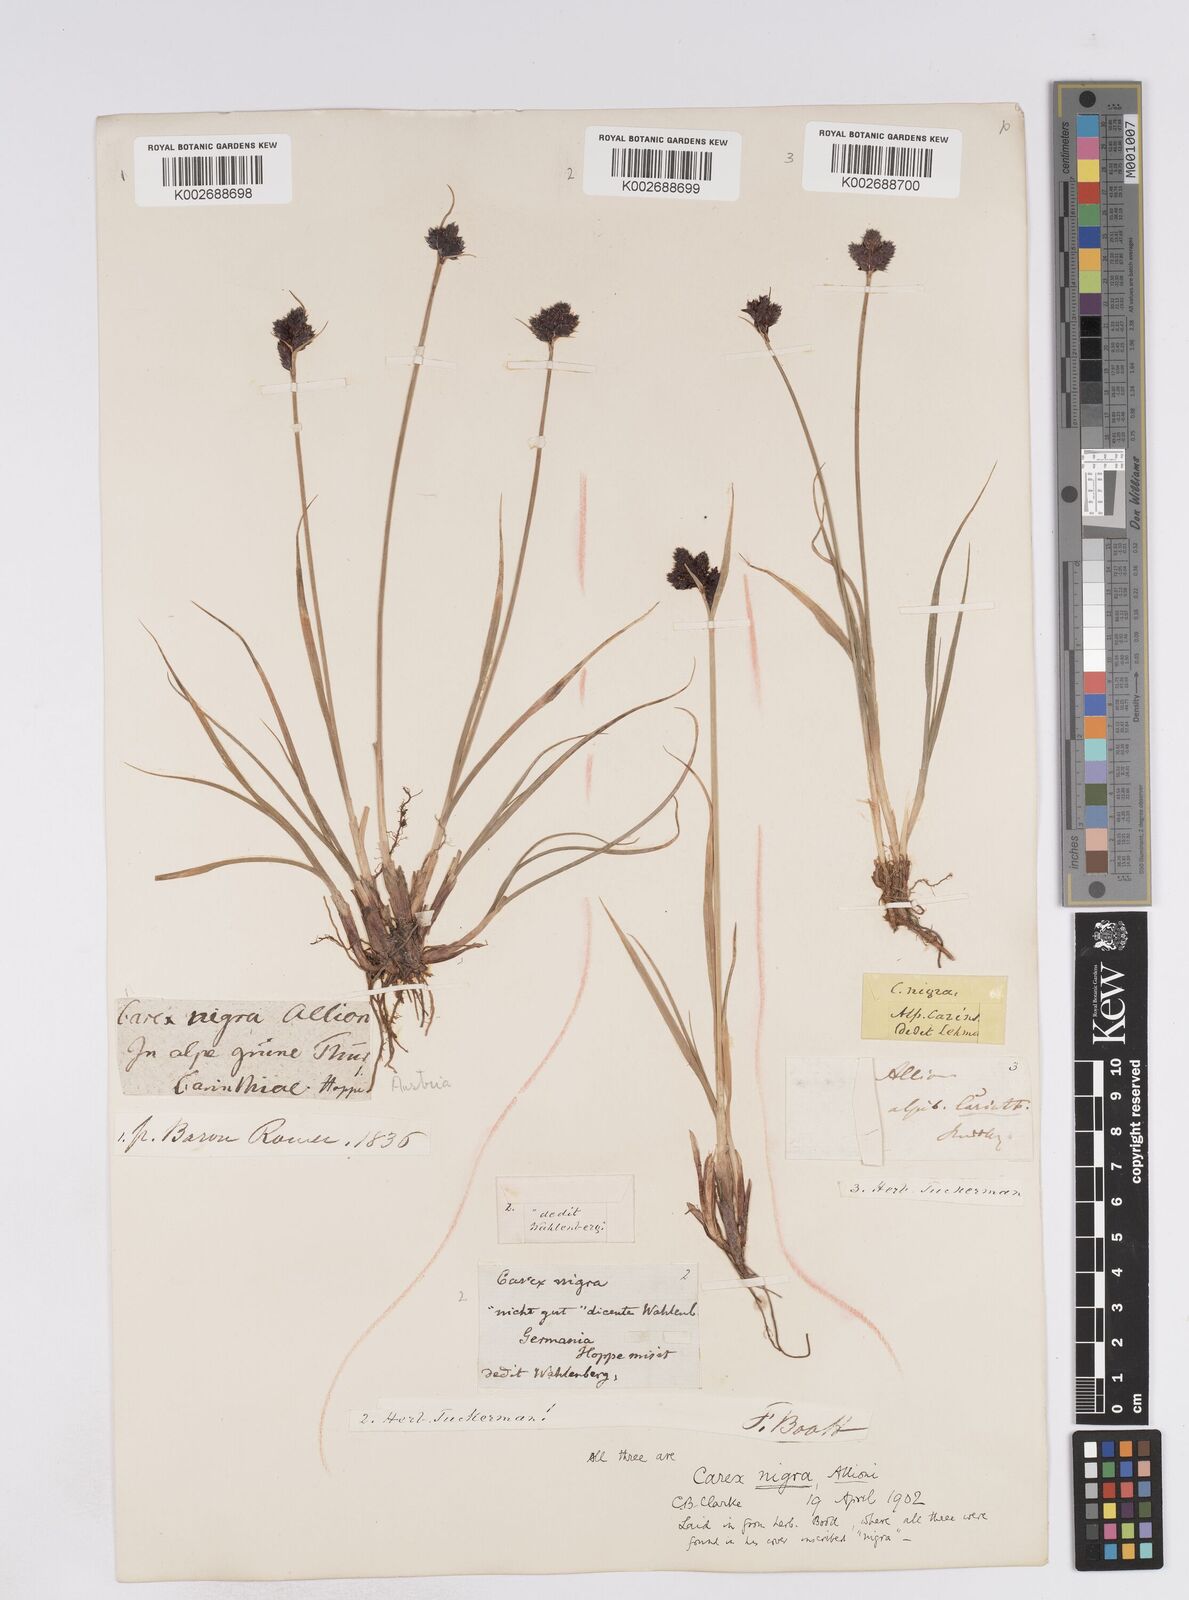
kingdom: Plantae
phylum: Tracheophyta
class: Liliopsida
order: Poales
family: Cyperaceae
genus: Carex
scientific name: Carex parviflora
